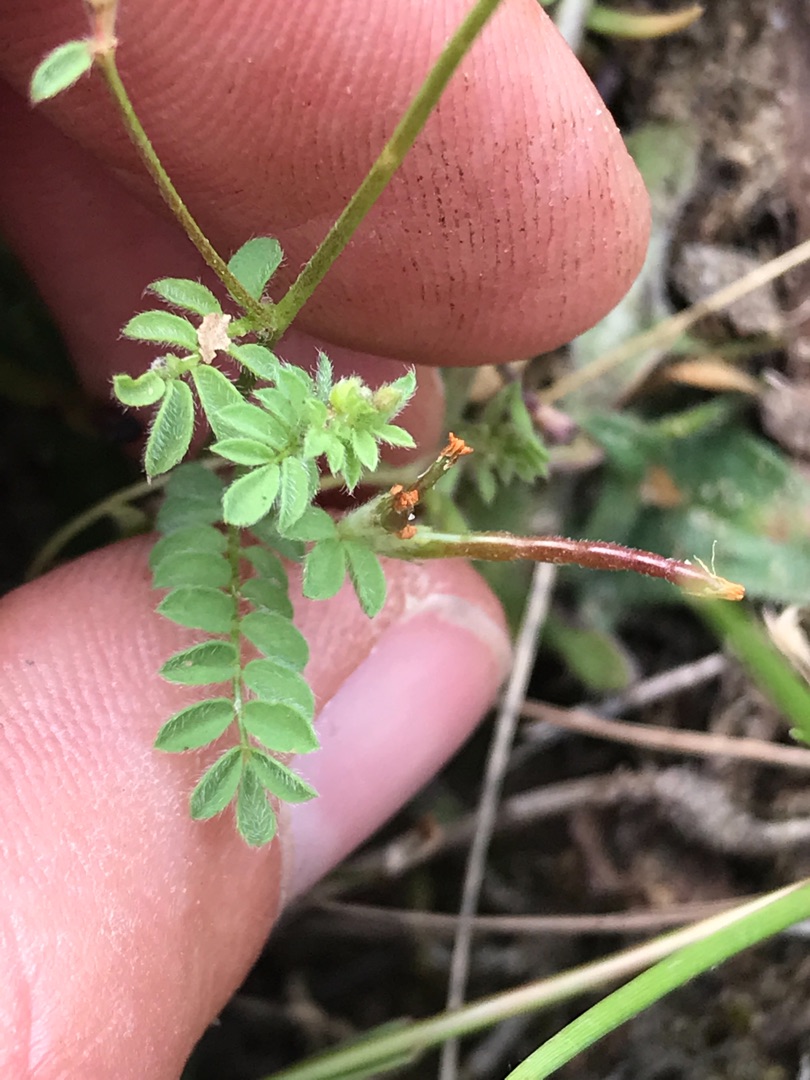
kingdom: Plantae
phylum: Tracheophyta
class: Magnoliopsida
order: Fabales
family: Fabaceae
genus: Ornithopus
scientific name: Ornithopus perpusillus
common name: Liden fugleklo
